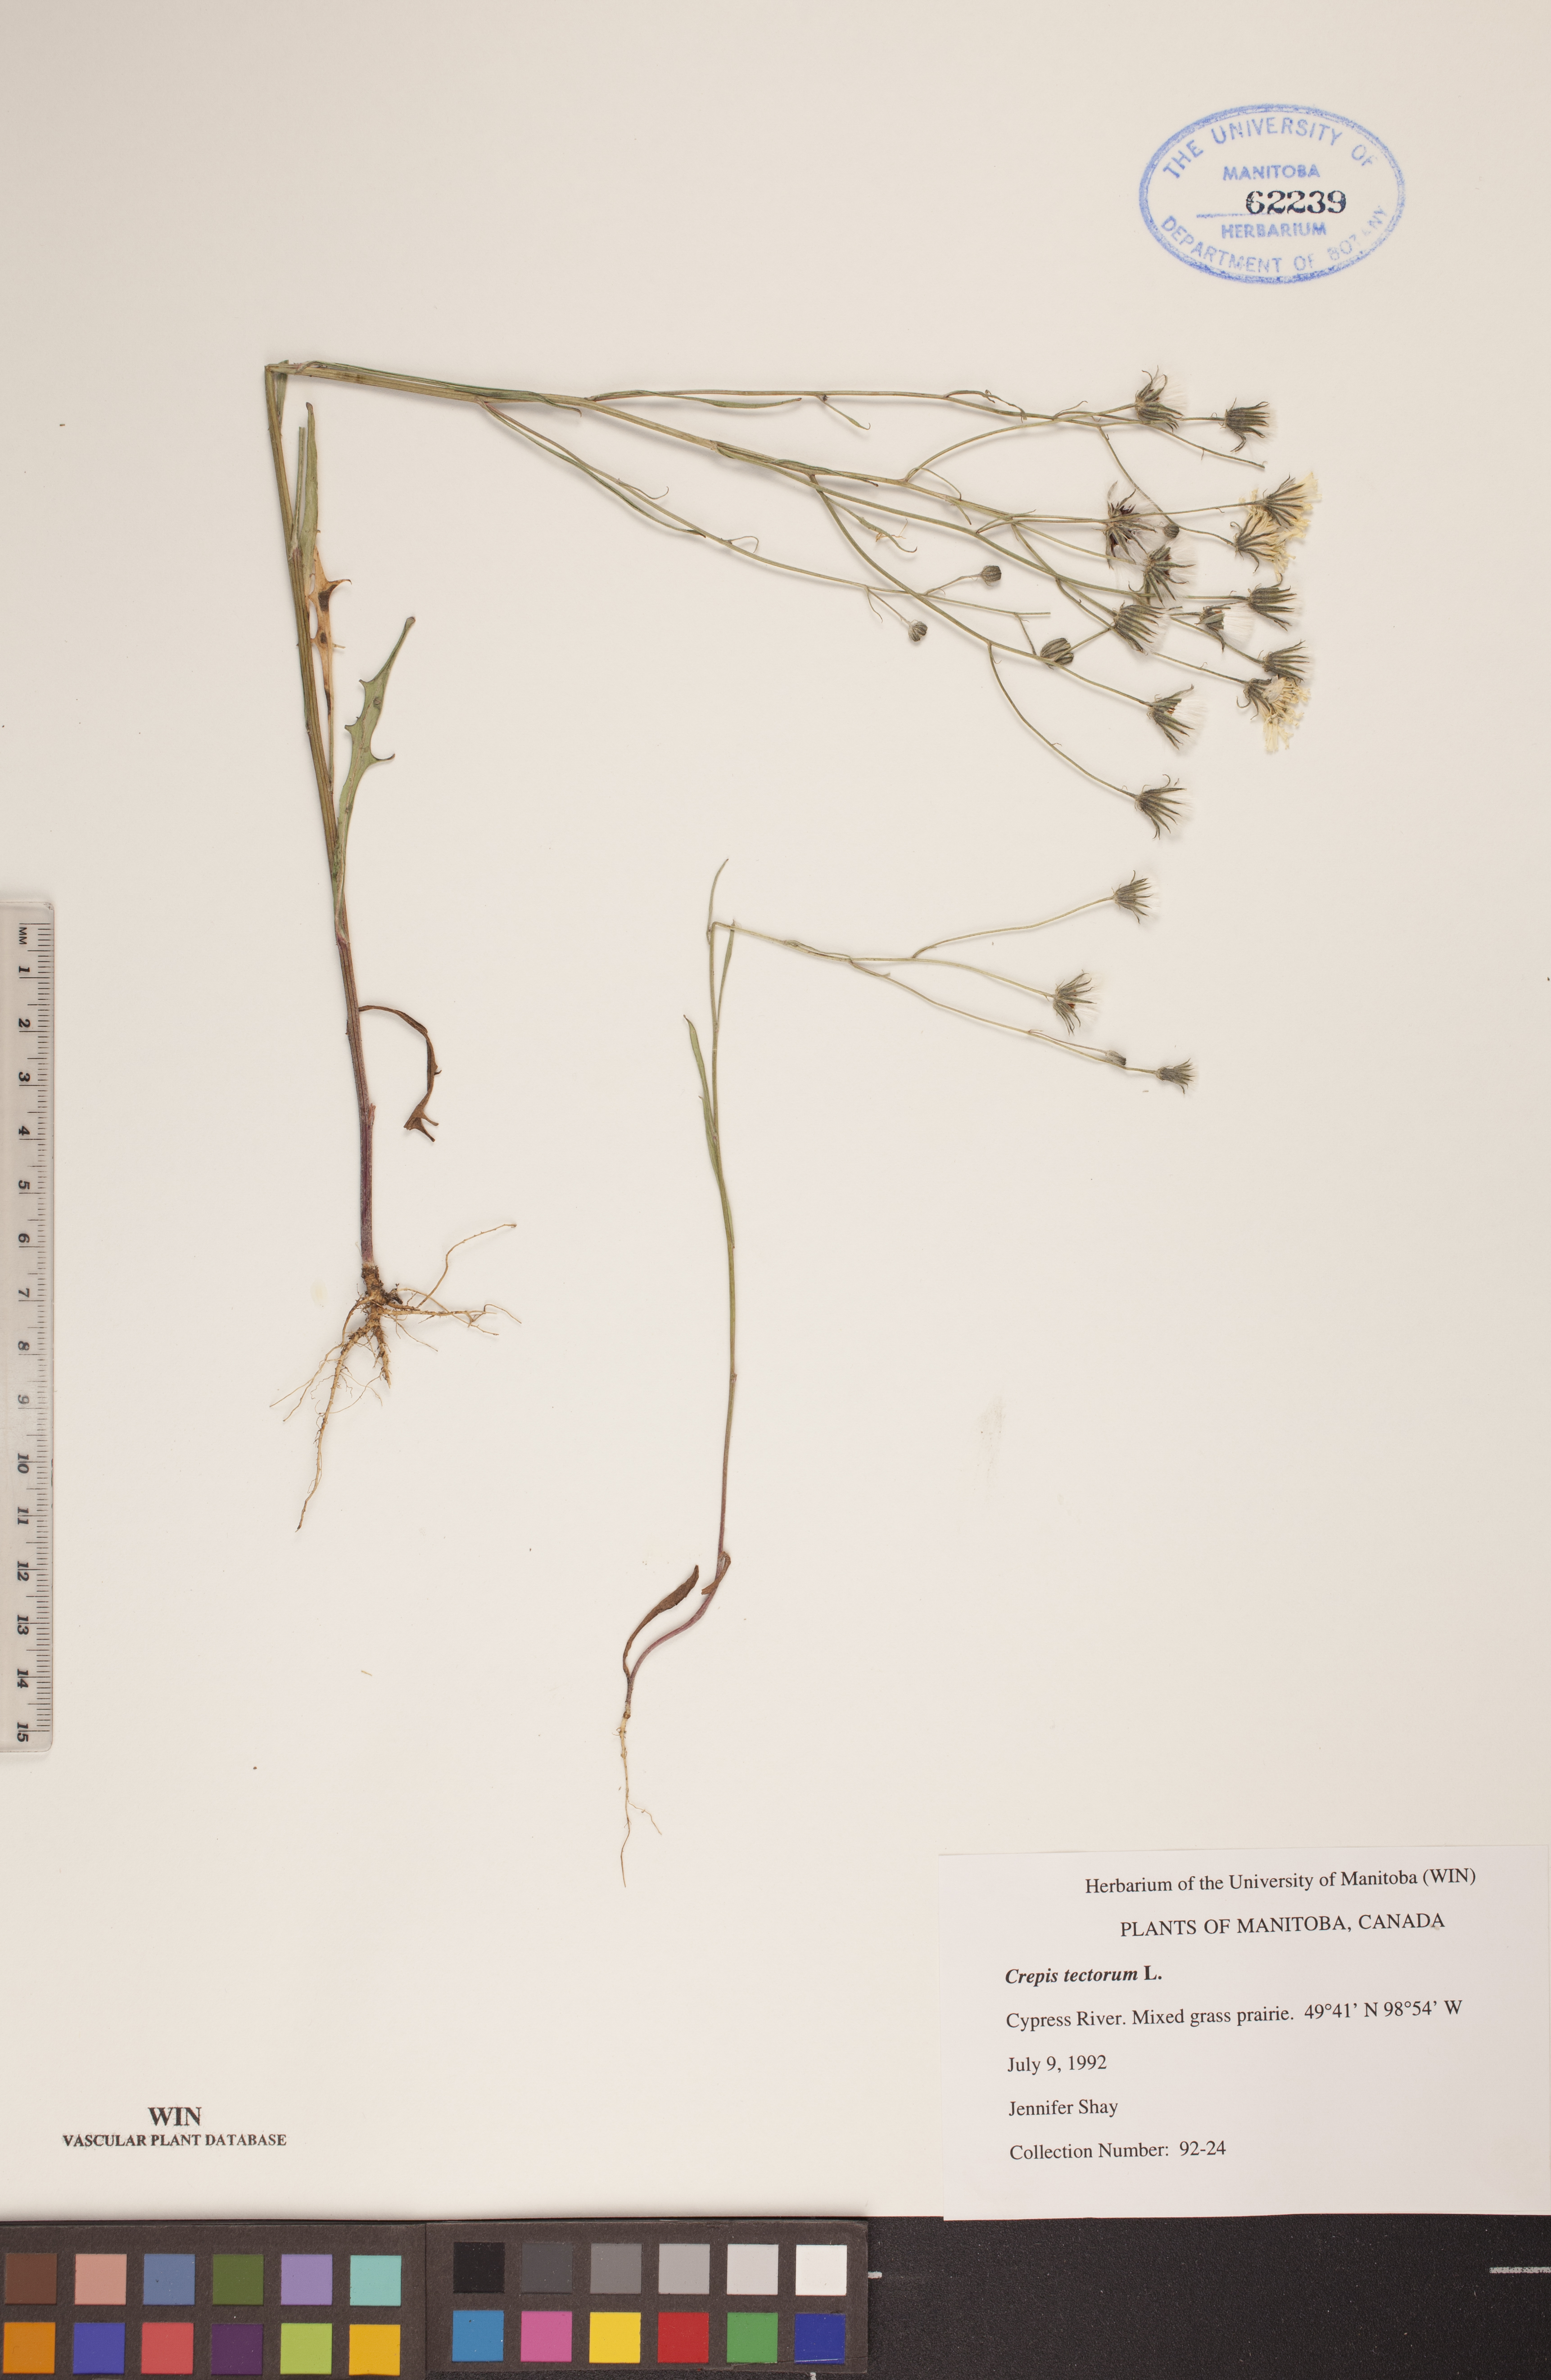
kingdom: Plantae
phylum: Tracheophyta
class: Magnoliopsida
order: Asterales
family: Asteraceae
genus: Crepis
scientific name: Crepis tectorum
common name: Narrow-leaved hawk's-beard
